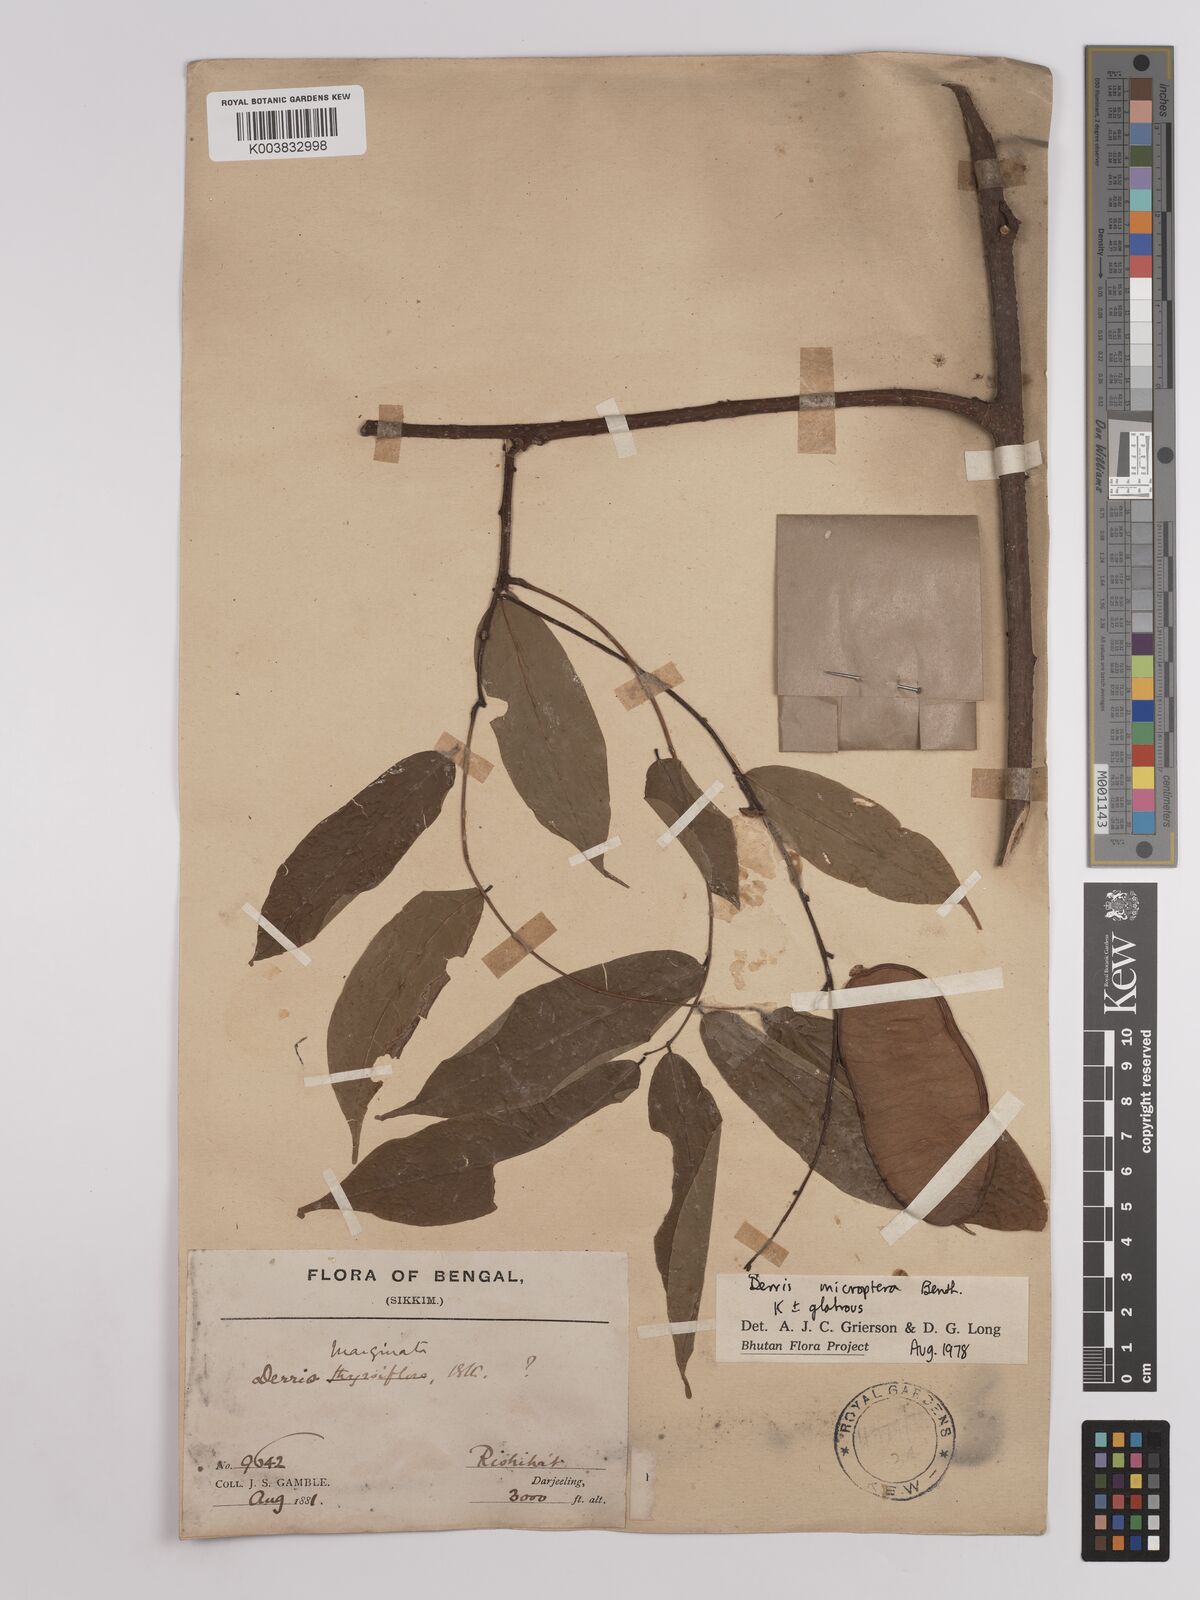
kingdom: Plantae
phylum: Tracheophyta
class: Magnoliopsida
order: Fabales
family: Fabaceae
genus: Derris
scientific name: Derris monticola
